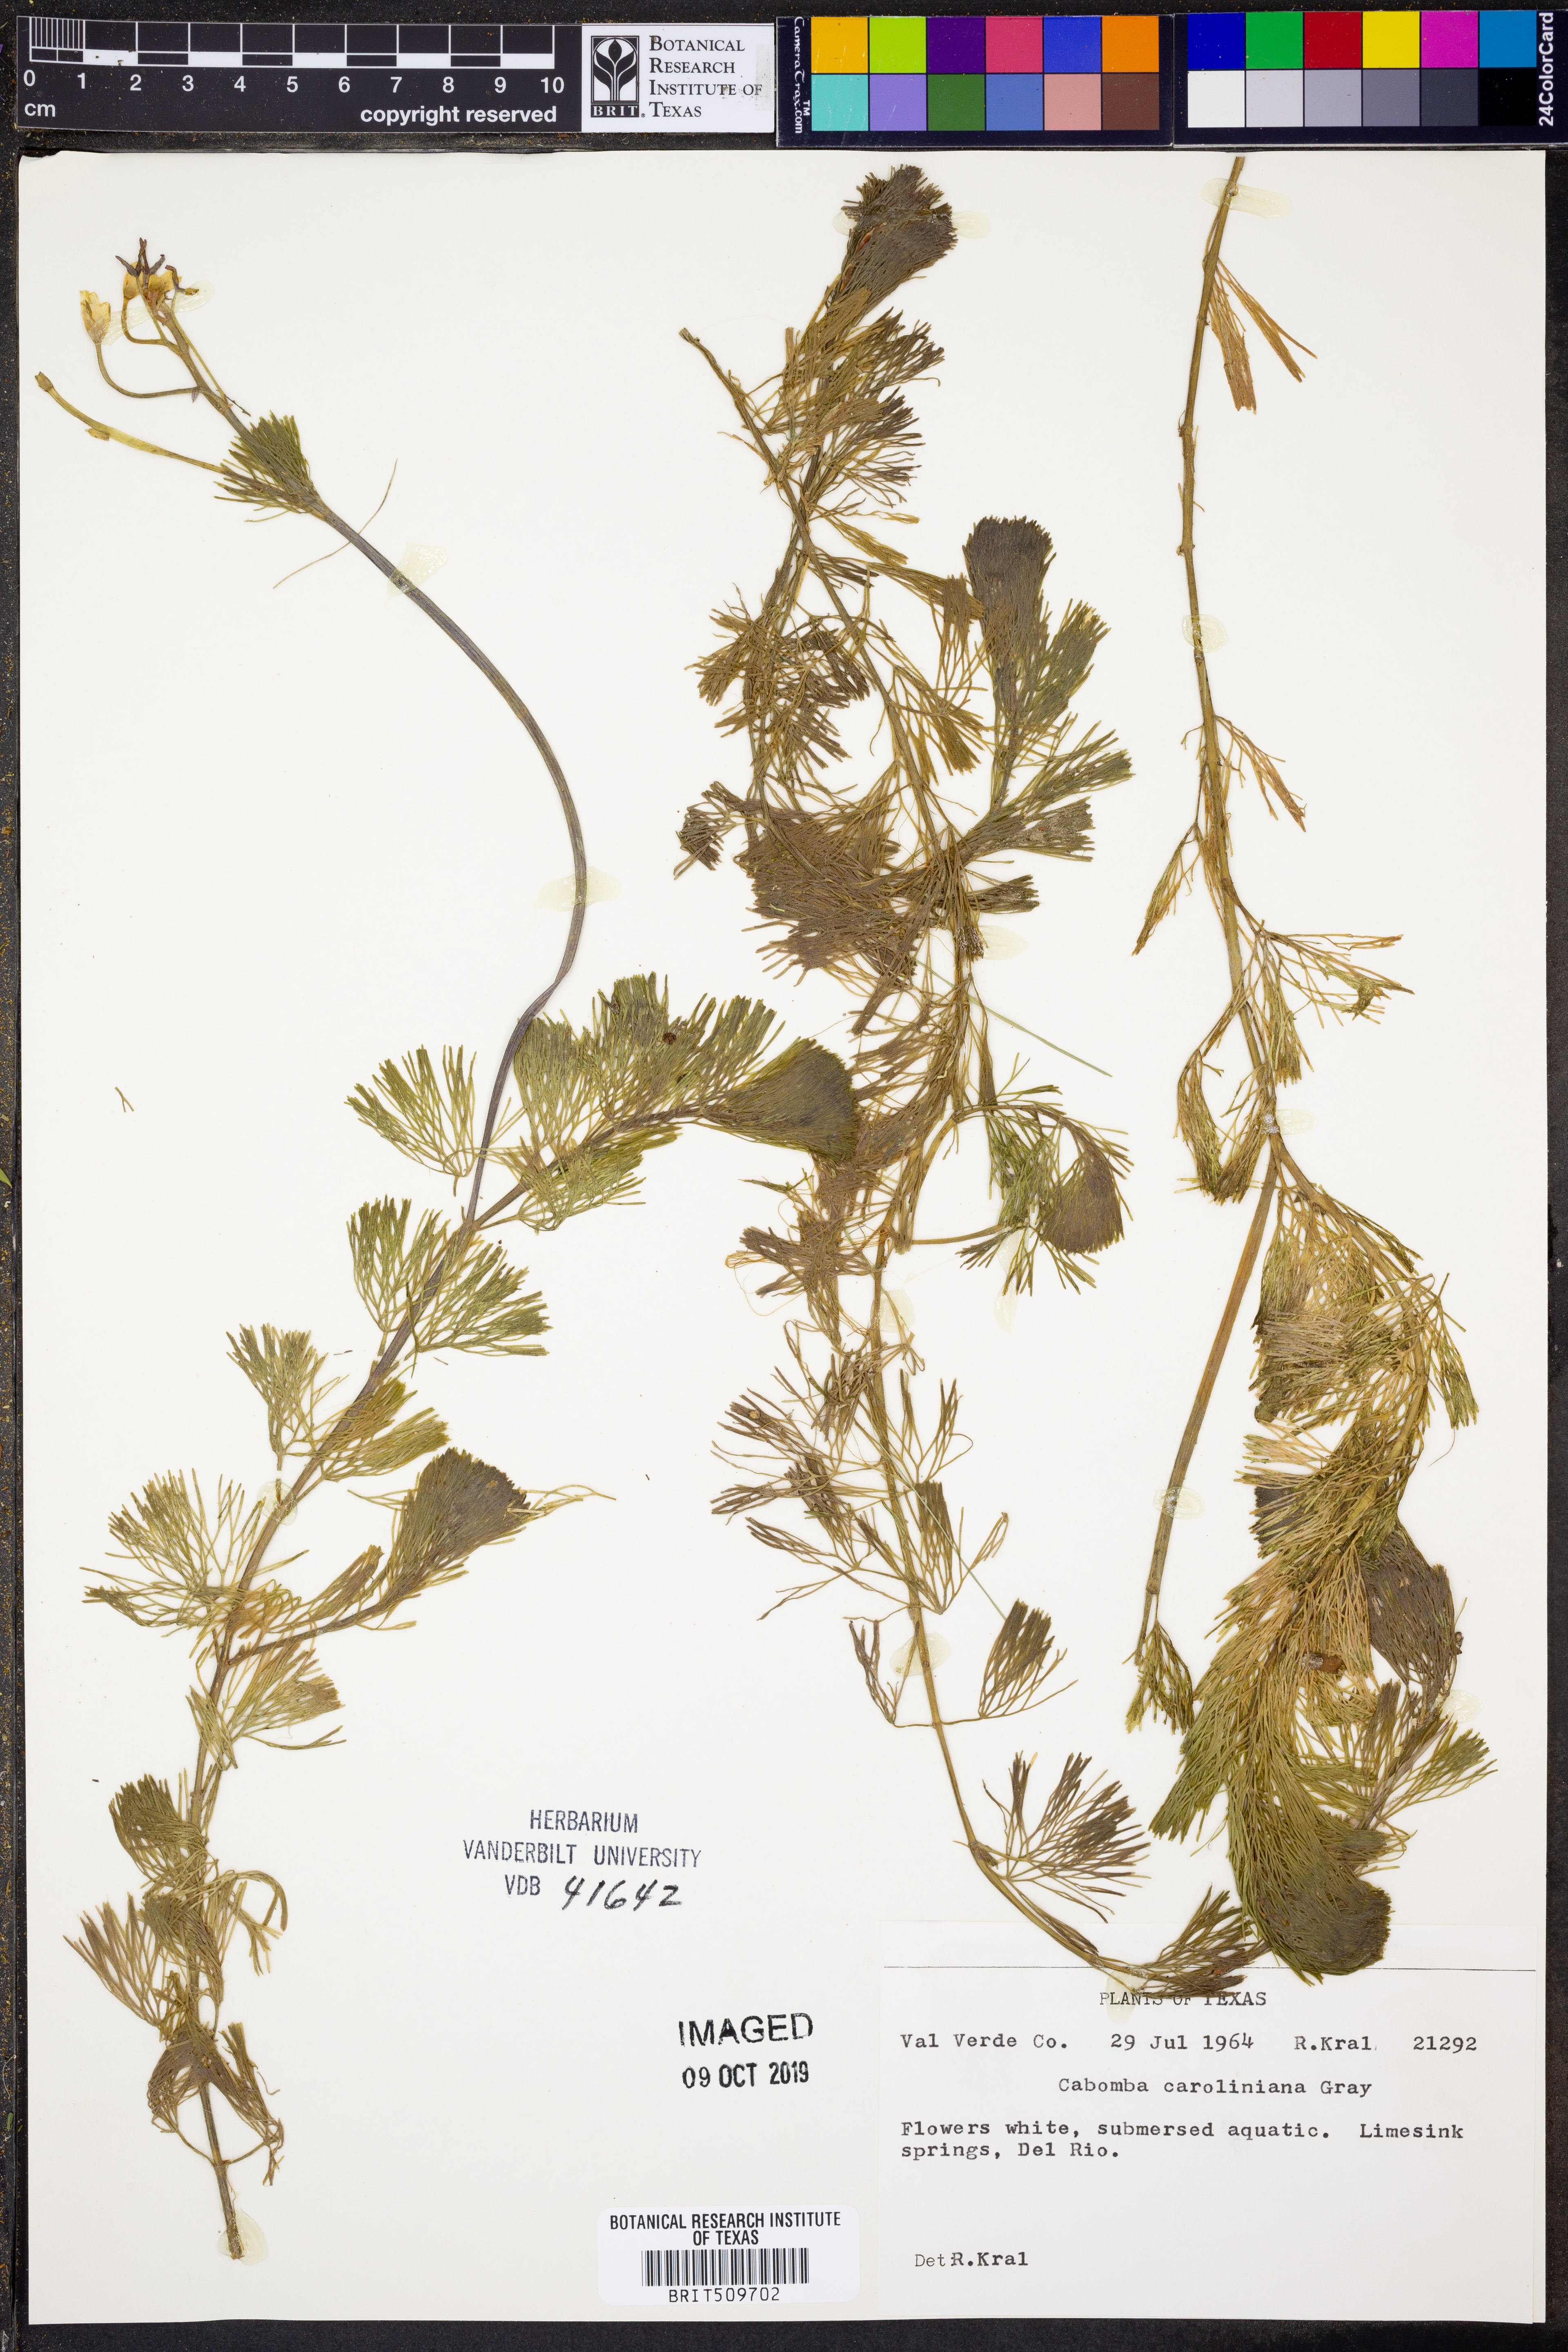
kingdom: Plantae
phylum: Tracheophyta
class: Magnoliopsida
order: Nymphaeales
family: Cabombaceae
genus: Cabomba
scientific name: Cabomba caroliniana
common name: Fanwort
